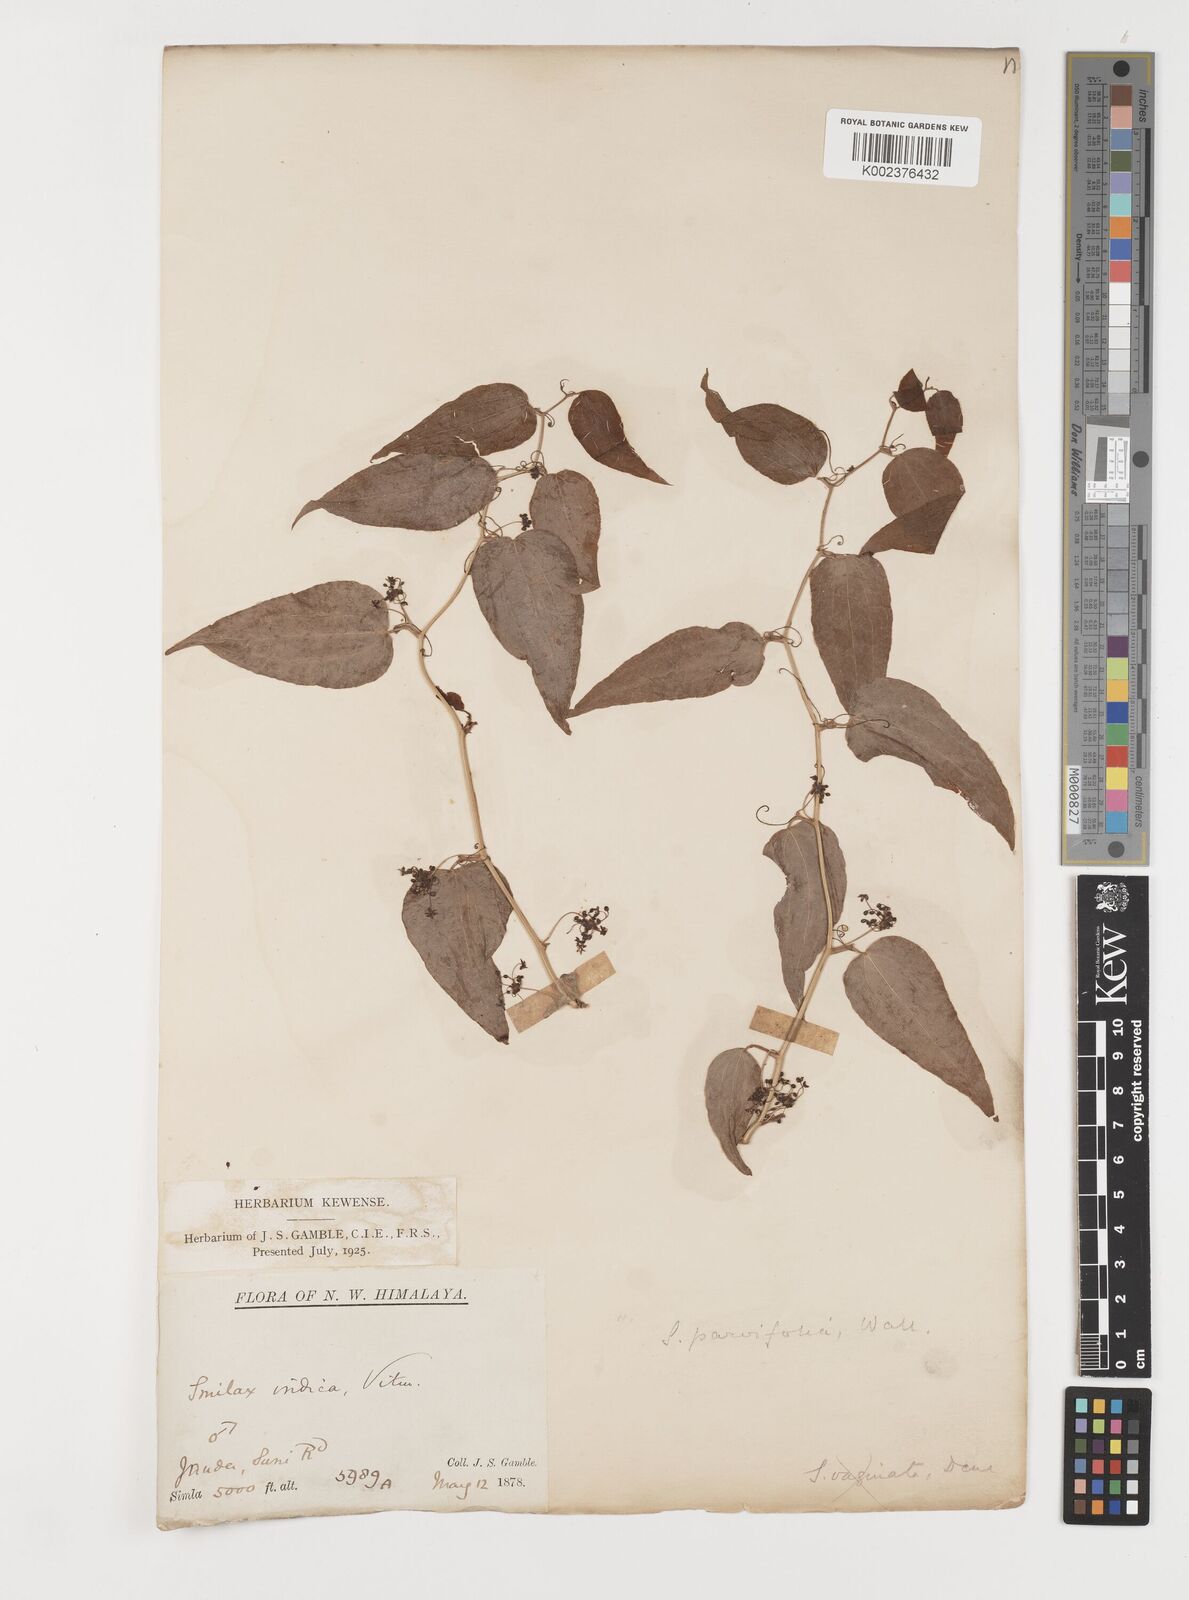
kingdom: Plantae
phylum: Tracheophyta
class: Liliopsida
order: Liliales
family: Smilacaceae
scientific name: Smilacaceae
